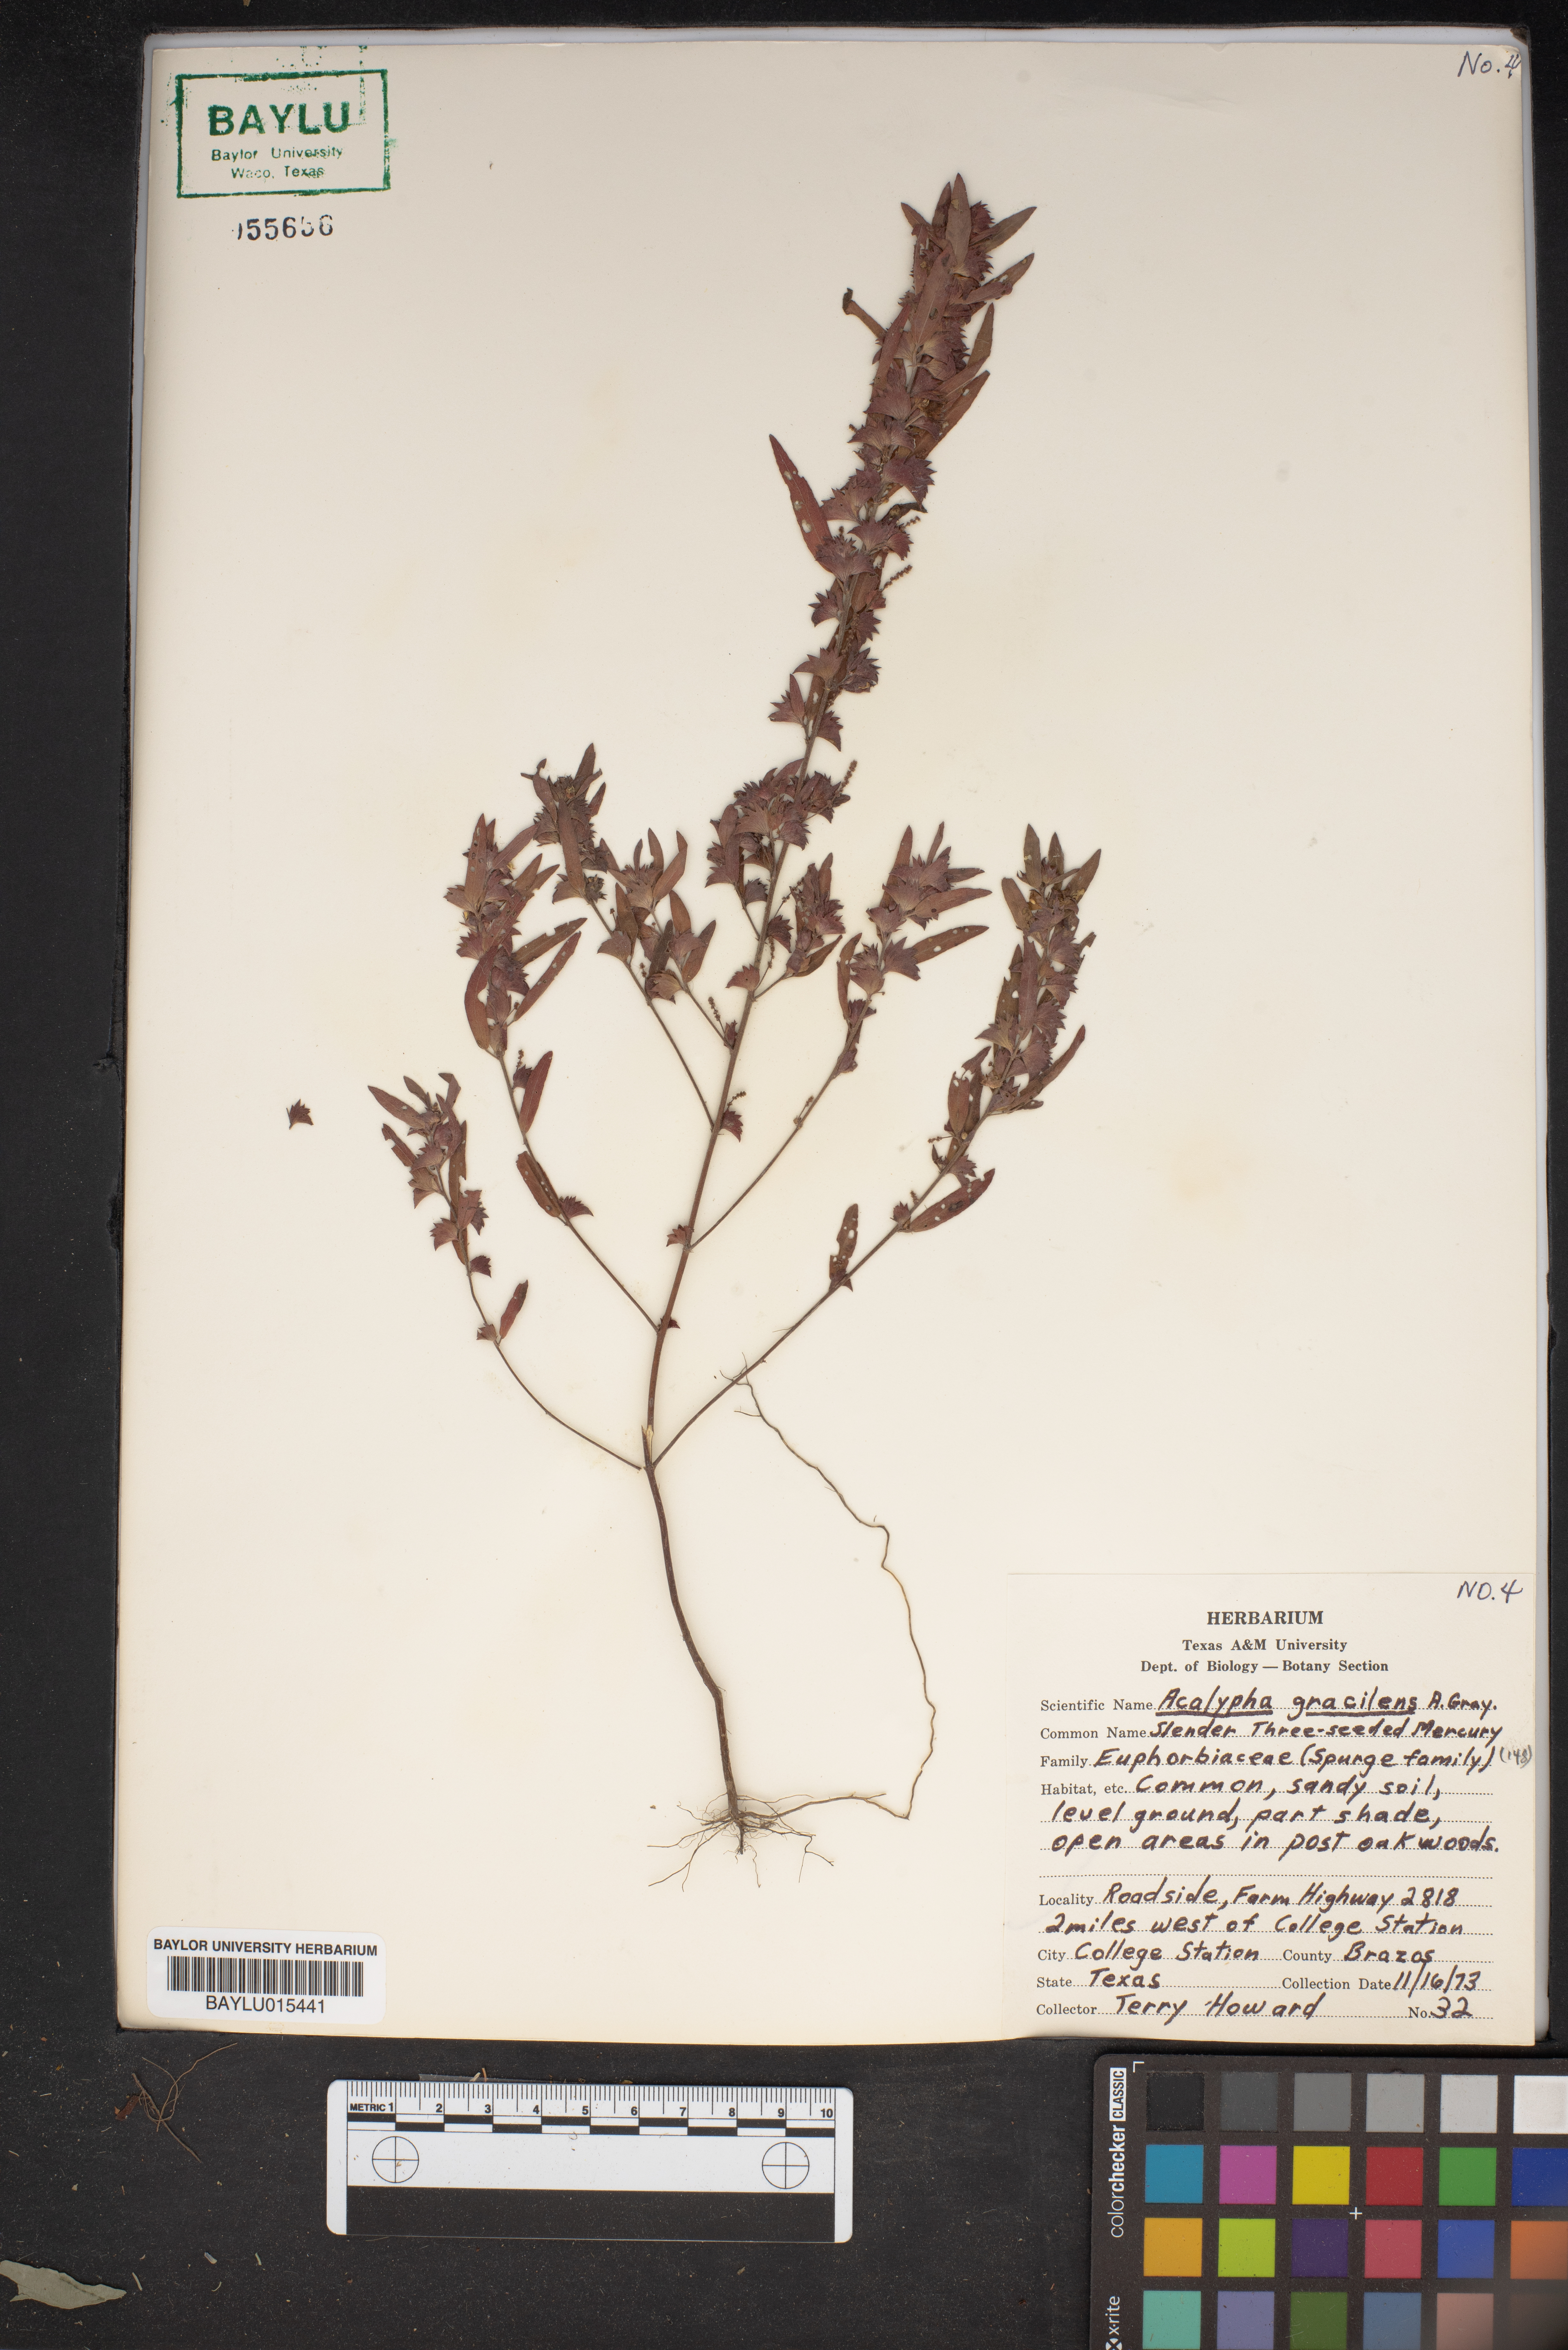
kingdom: Plantae
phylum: Tracheophyta
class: Magnoliopsida
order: Malpighiales
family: Euphorbiaceae
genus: Acalypha
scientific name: Acalypha gracilens
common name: Slender three-seeded mercury
